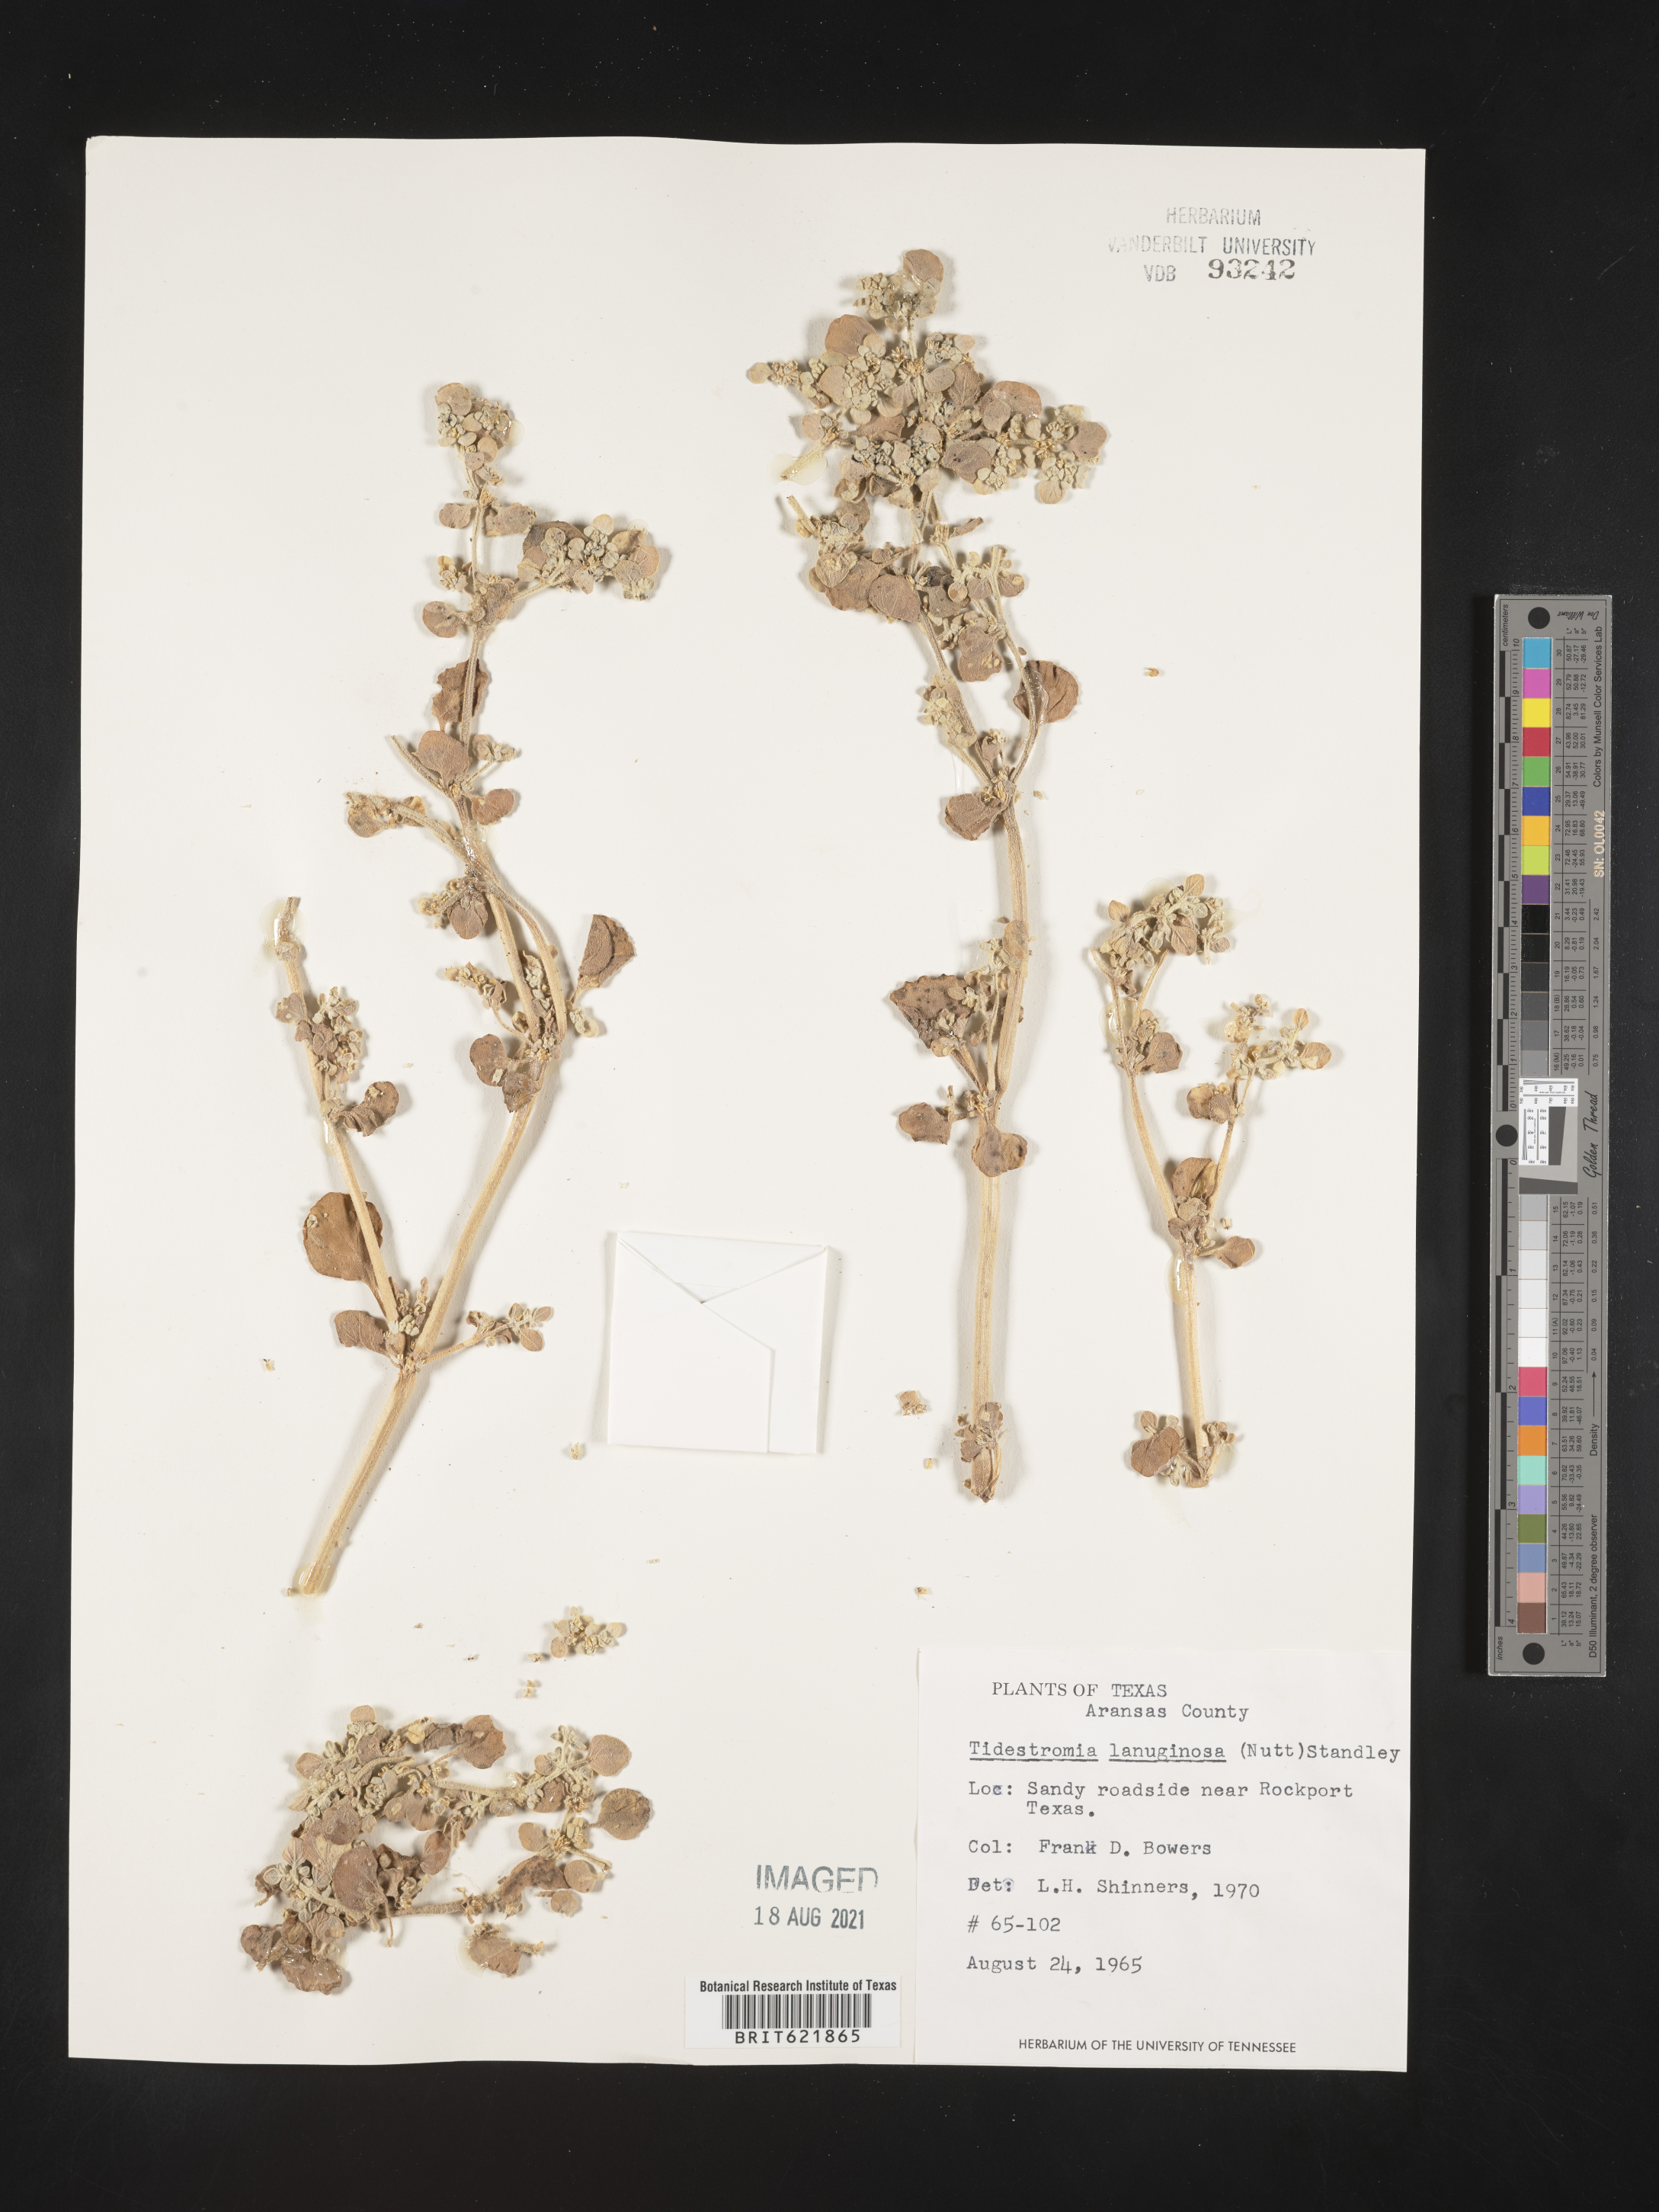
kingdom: Plantae
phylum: Tracheophyta
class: Magnoliopsida
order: Caryophyllales
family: Amaranthaceae
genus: Tidestromia
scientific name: Tidestromia lanuginosa
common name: Woolly tidestromia
